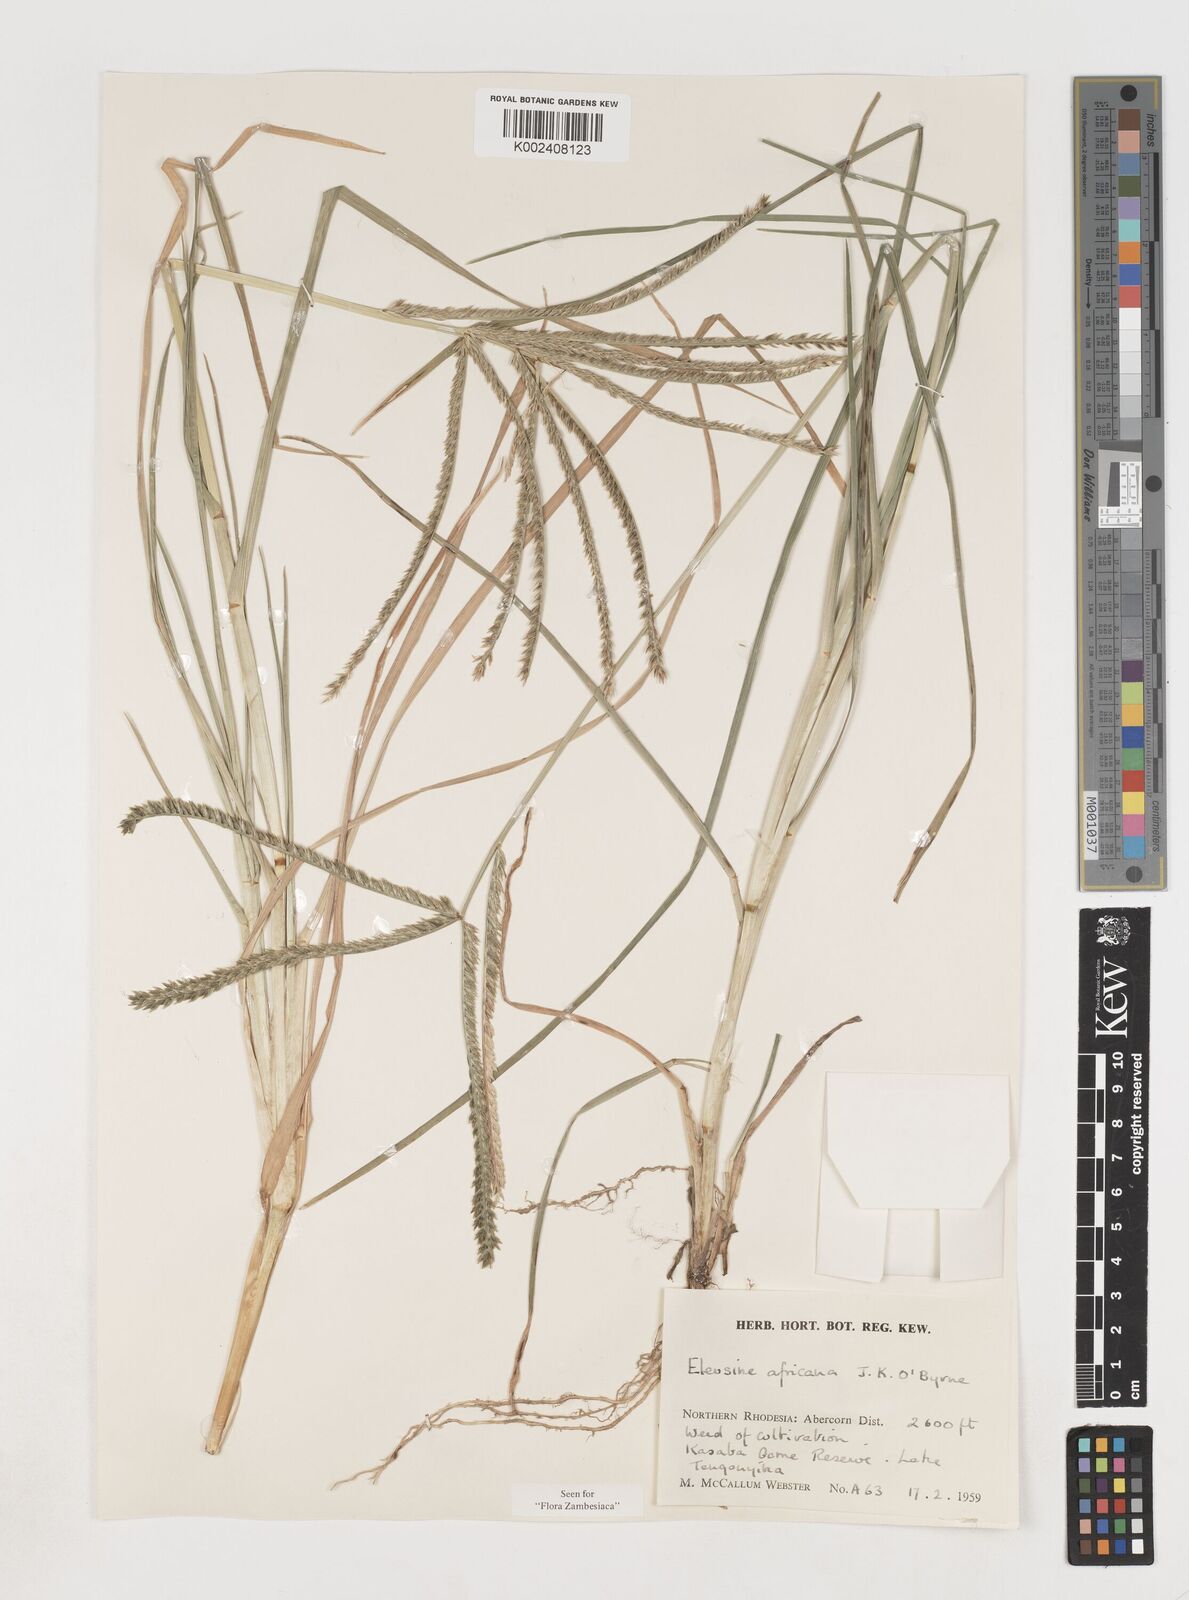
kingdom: Plantae
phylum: Tracheophyta
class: Liliopsida
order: Poales
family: Poaceae
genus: Eleusine
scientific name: Eleusine africana
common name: Wild african finger millet
